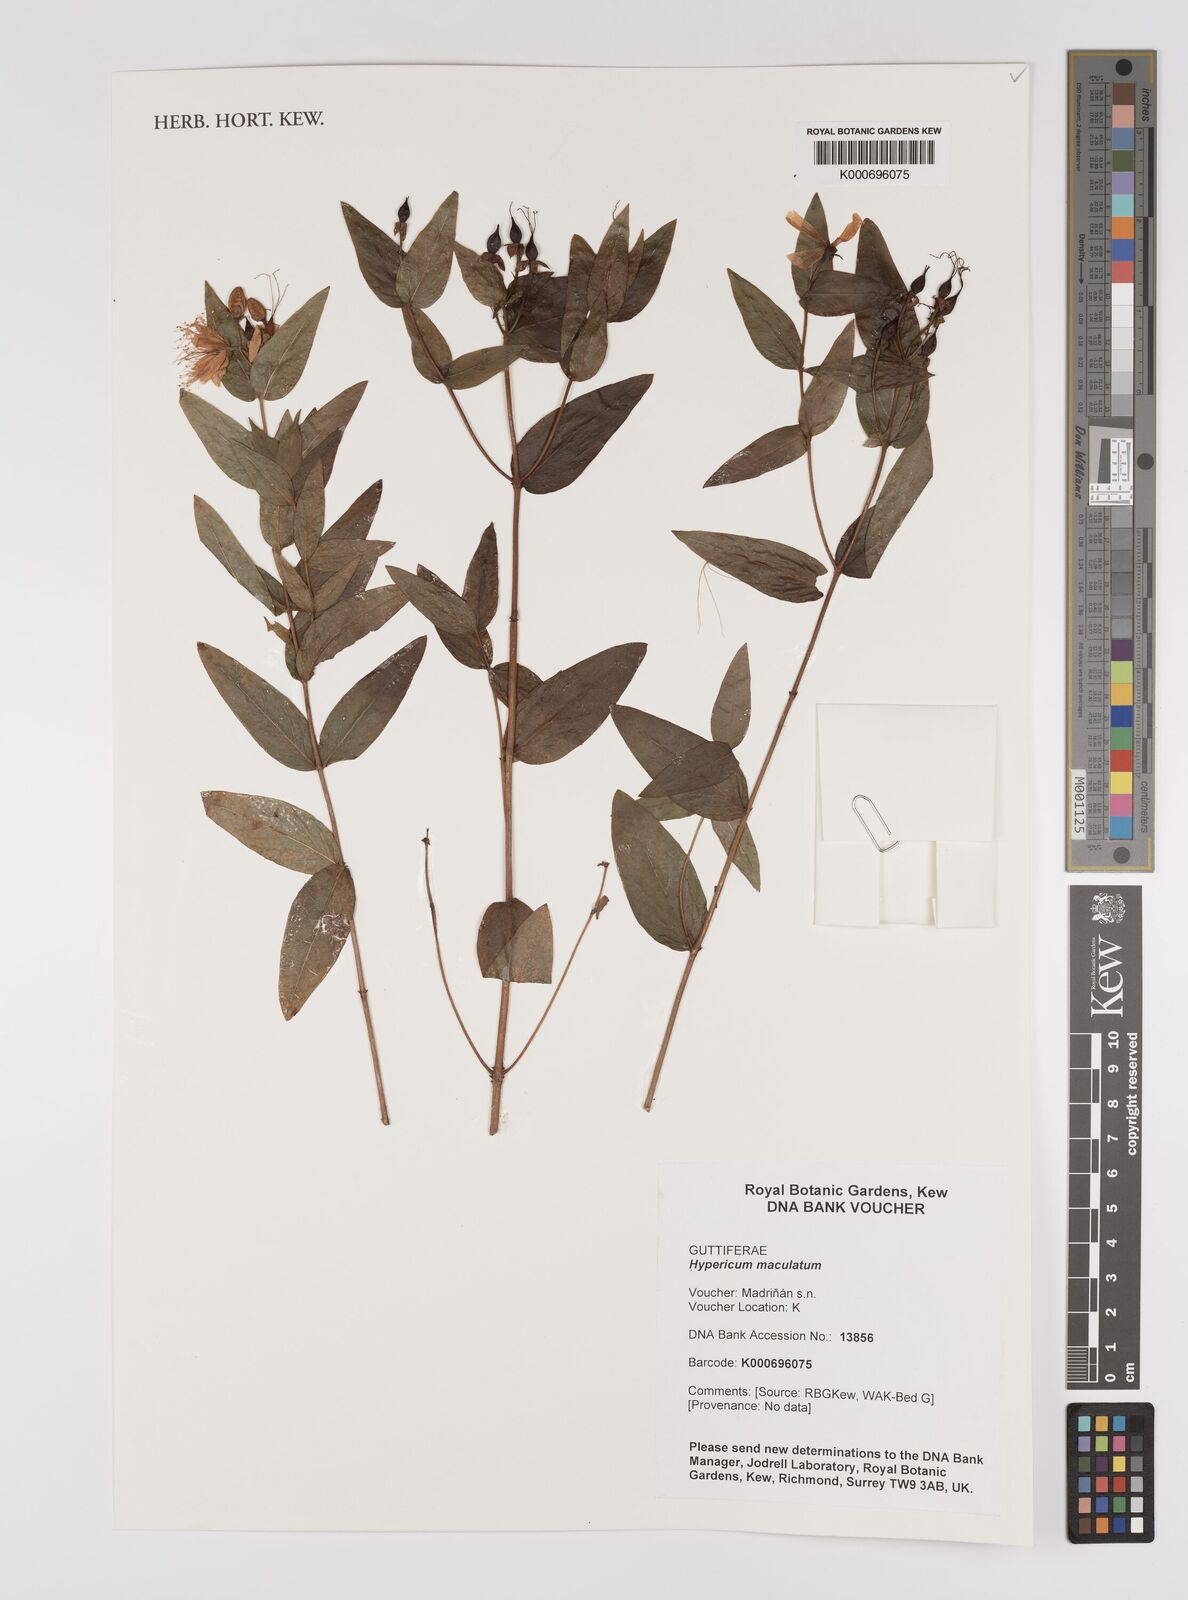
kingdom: Plantae
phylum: Tracheophyta
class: Magnoliopsida
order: Malpighiales
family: Hypericaceae
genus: Hypericum
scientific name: Hypericum
